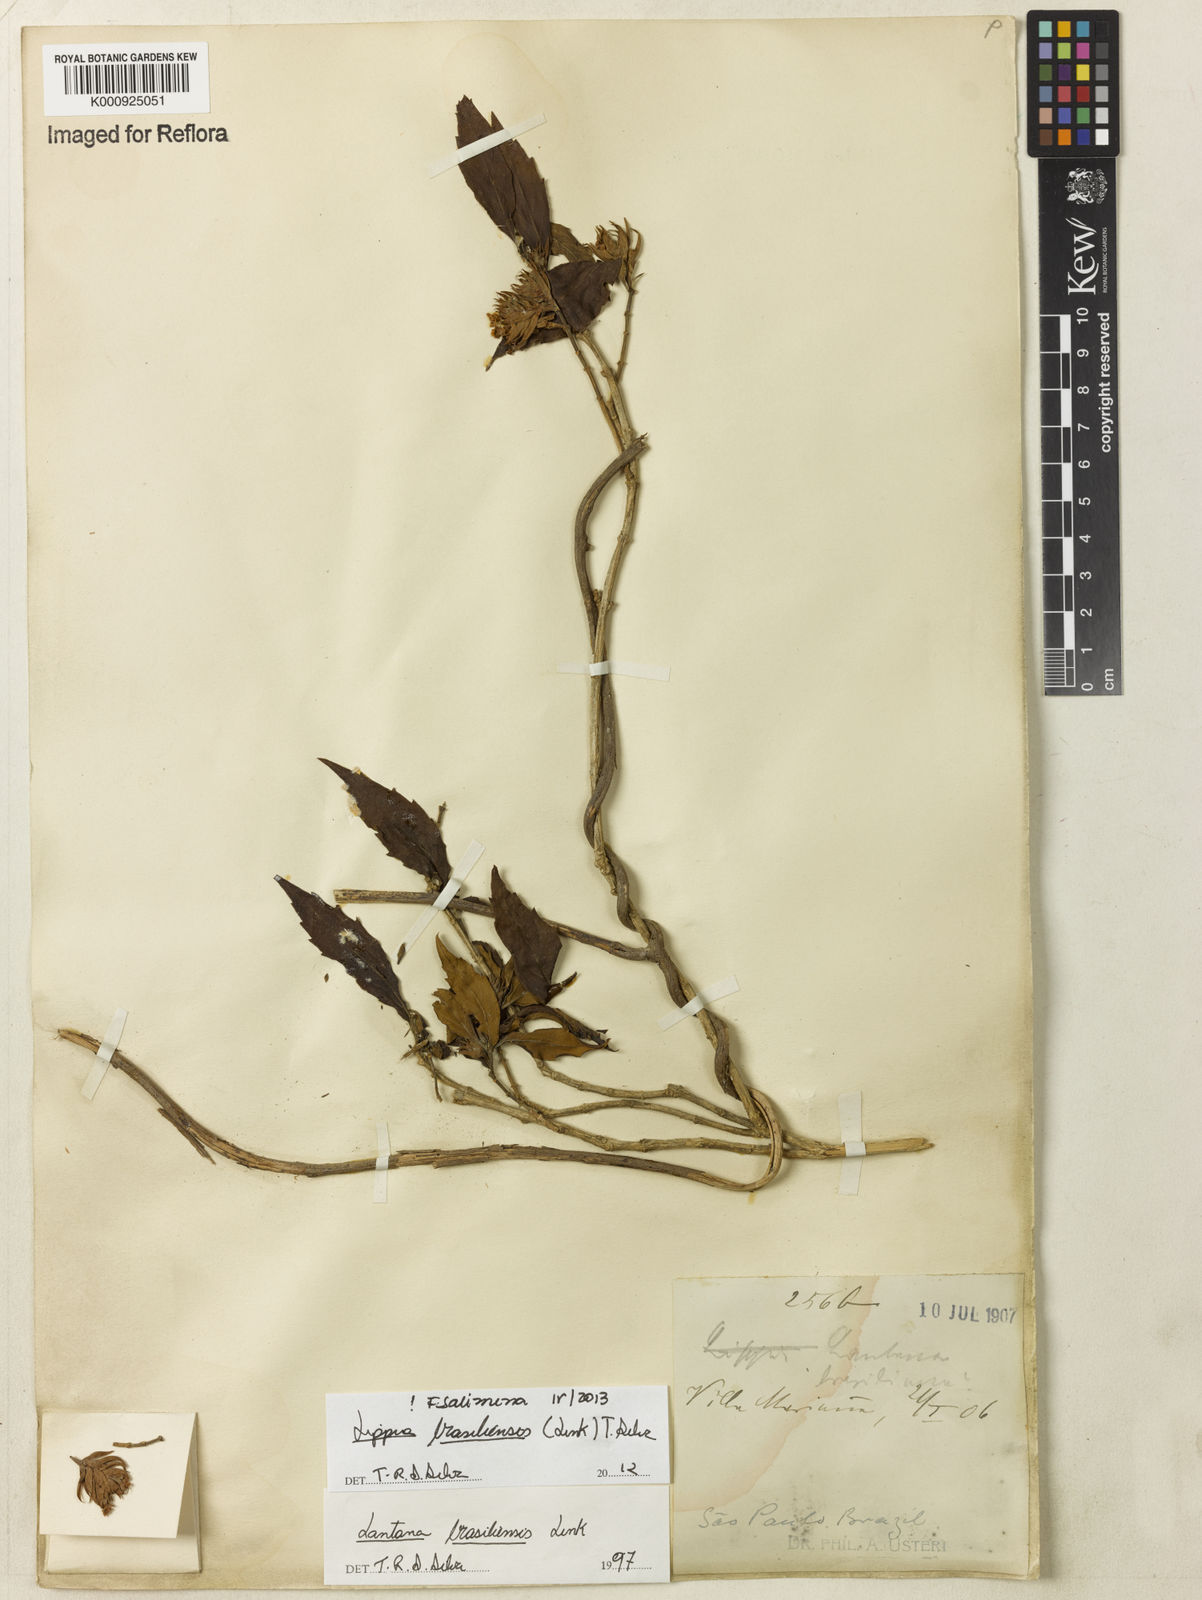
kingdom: Plantae
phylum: Tracheophyta
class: Magnoliopsida
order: Lamiales
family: Verbenaceae
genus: Lippia
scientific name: Lippia brasiliensis
